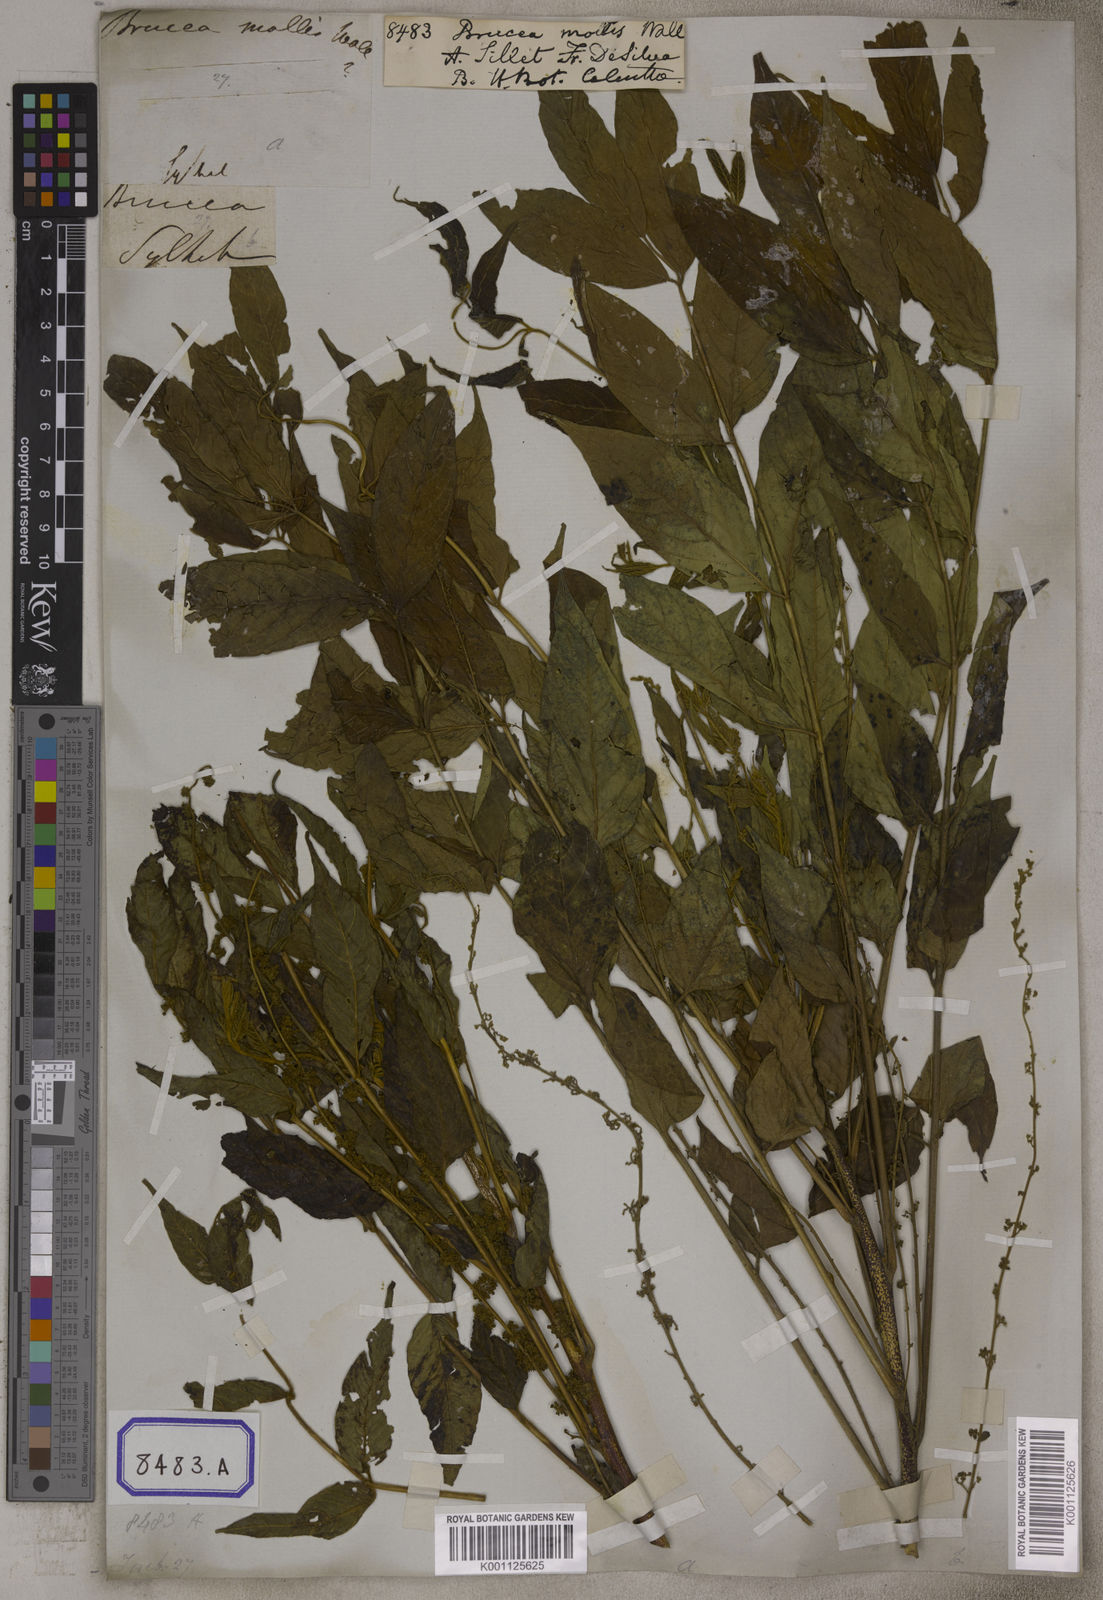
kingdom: Plantae
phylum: Tracheophyta
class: Magnoliopsida
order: Sapindales
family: Simaroubaceae
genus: Brucea
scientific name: Brucea
